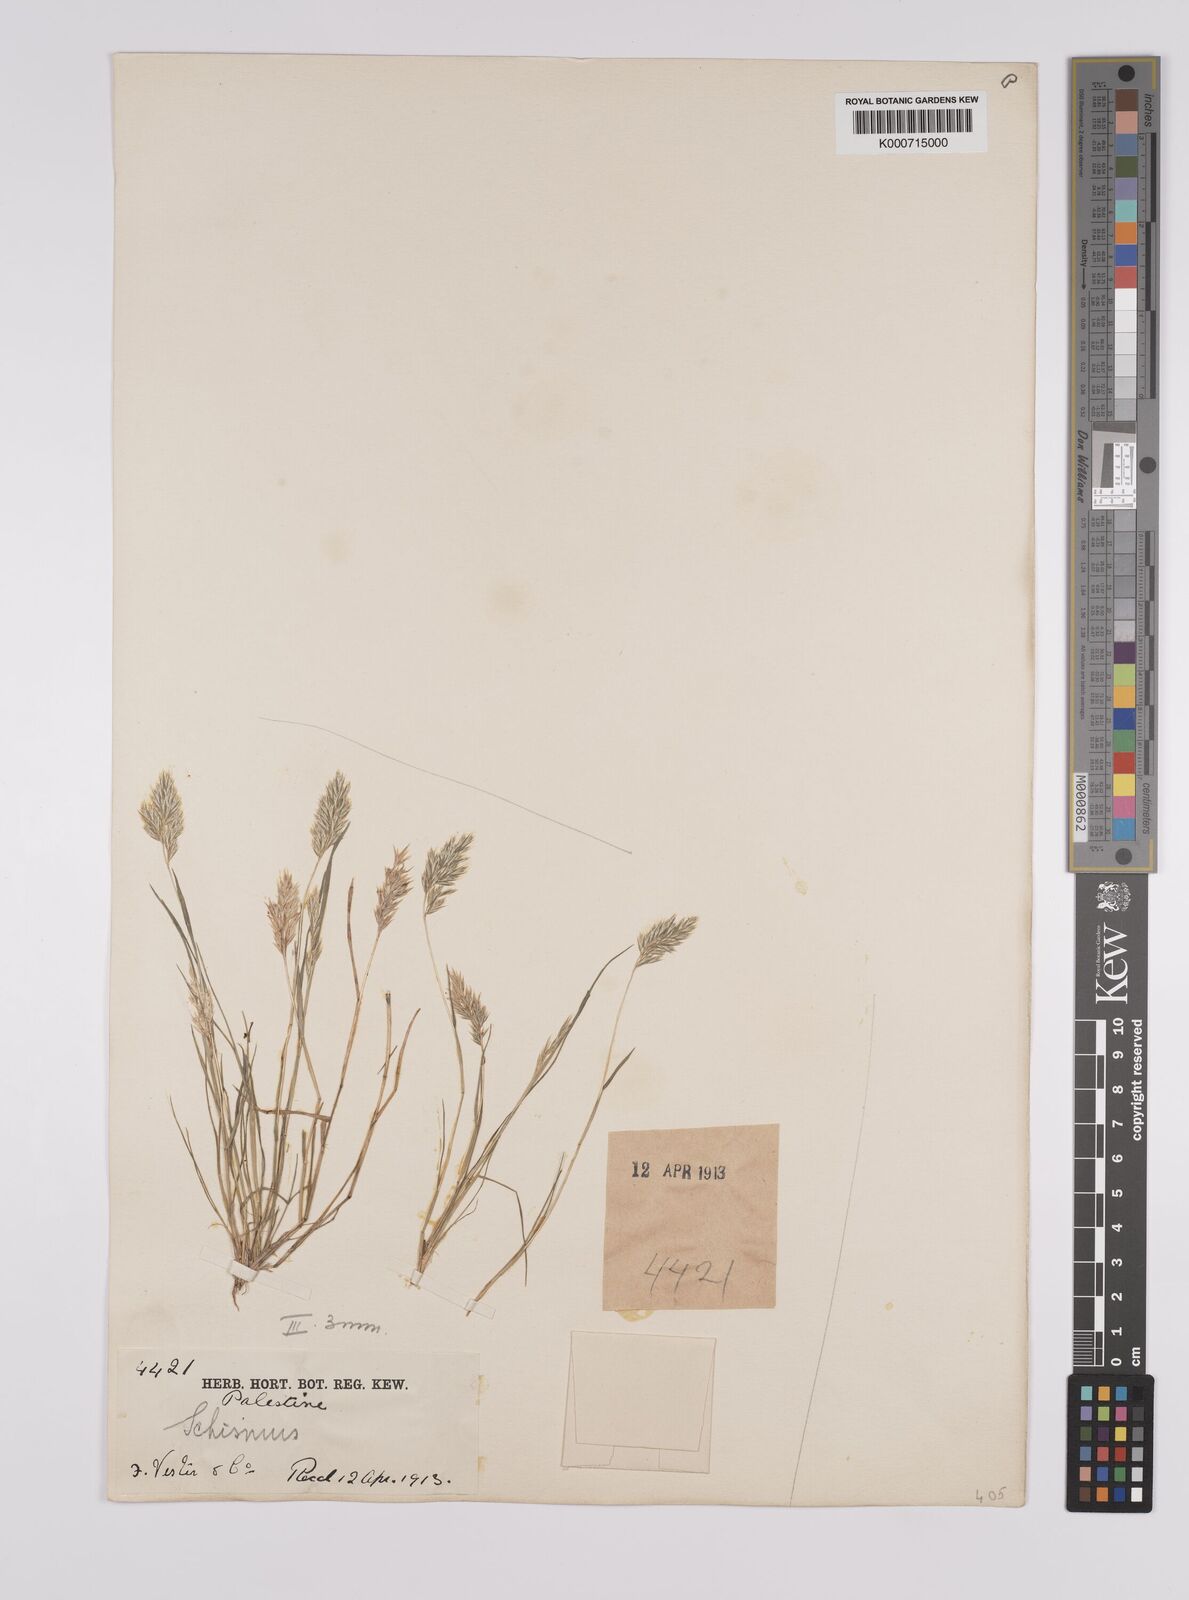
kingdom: Plantae
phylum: Tracheophyta
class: Liliopsida
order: Poales
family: Poaceae
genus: Schismus
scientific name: Schismus arabicus
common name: Arabian schismus
